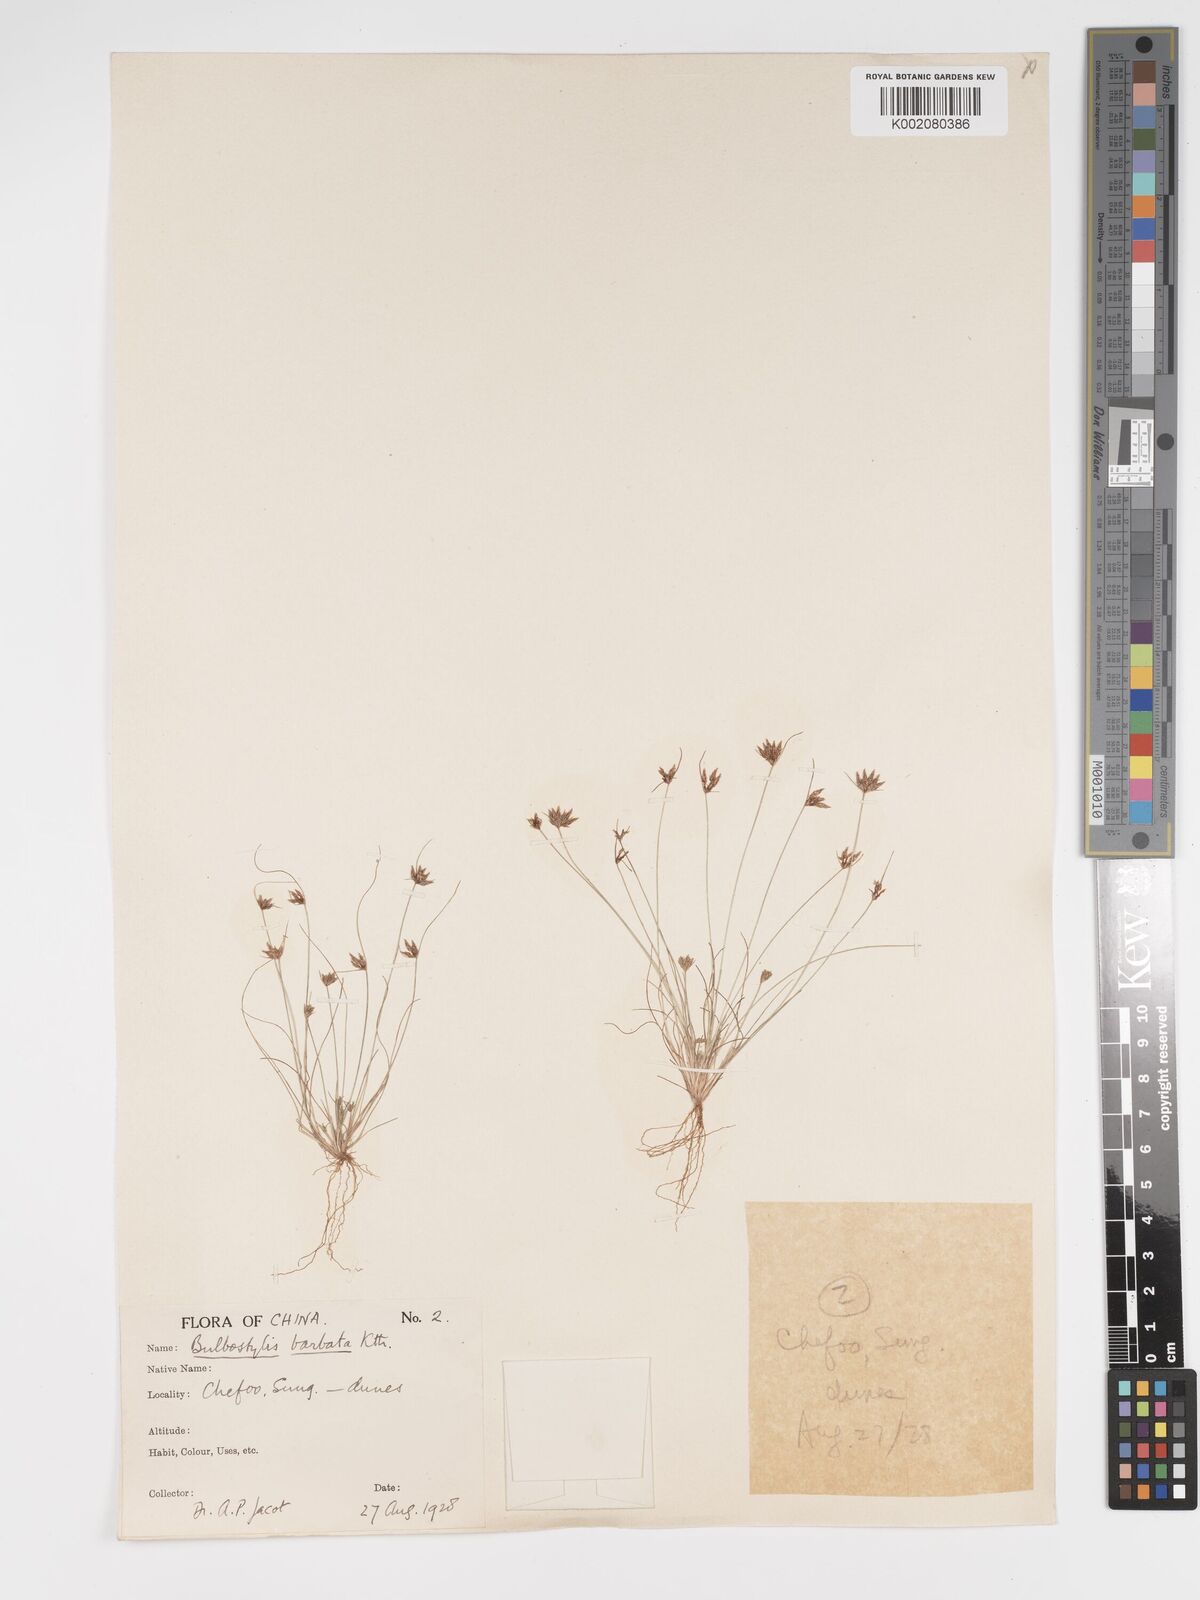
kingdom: Plantae
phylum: Tracheophyta
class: Liliopsida
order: Poales
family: Cyperaceae
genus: Bulbostylis
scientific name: Bulbostylis barbata
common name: Watergrass
